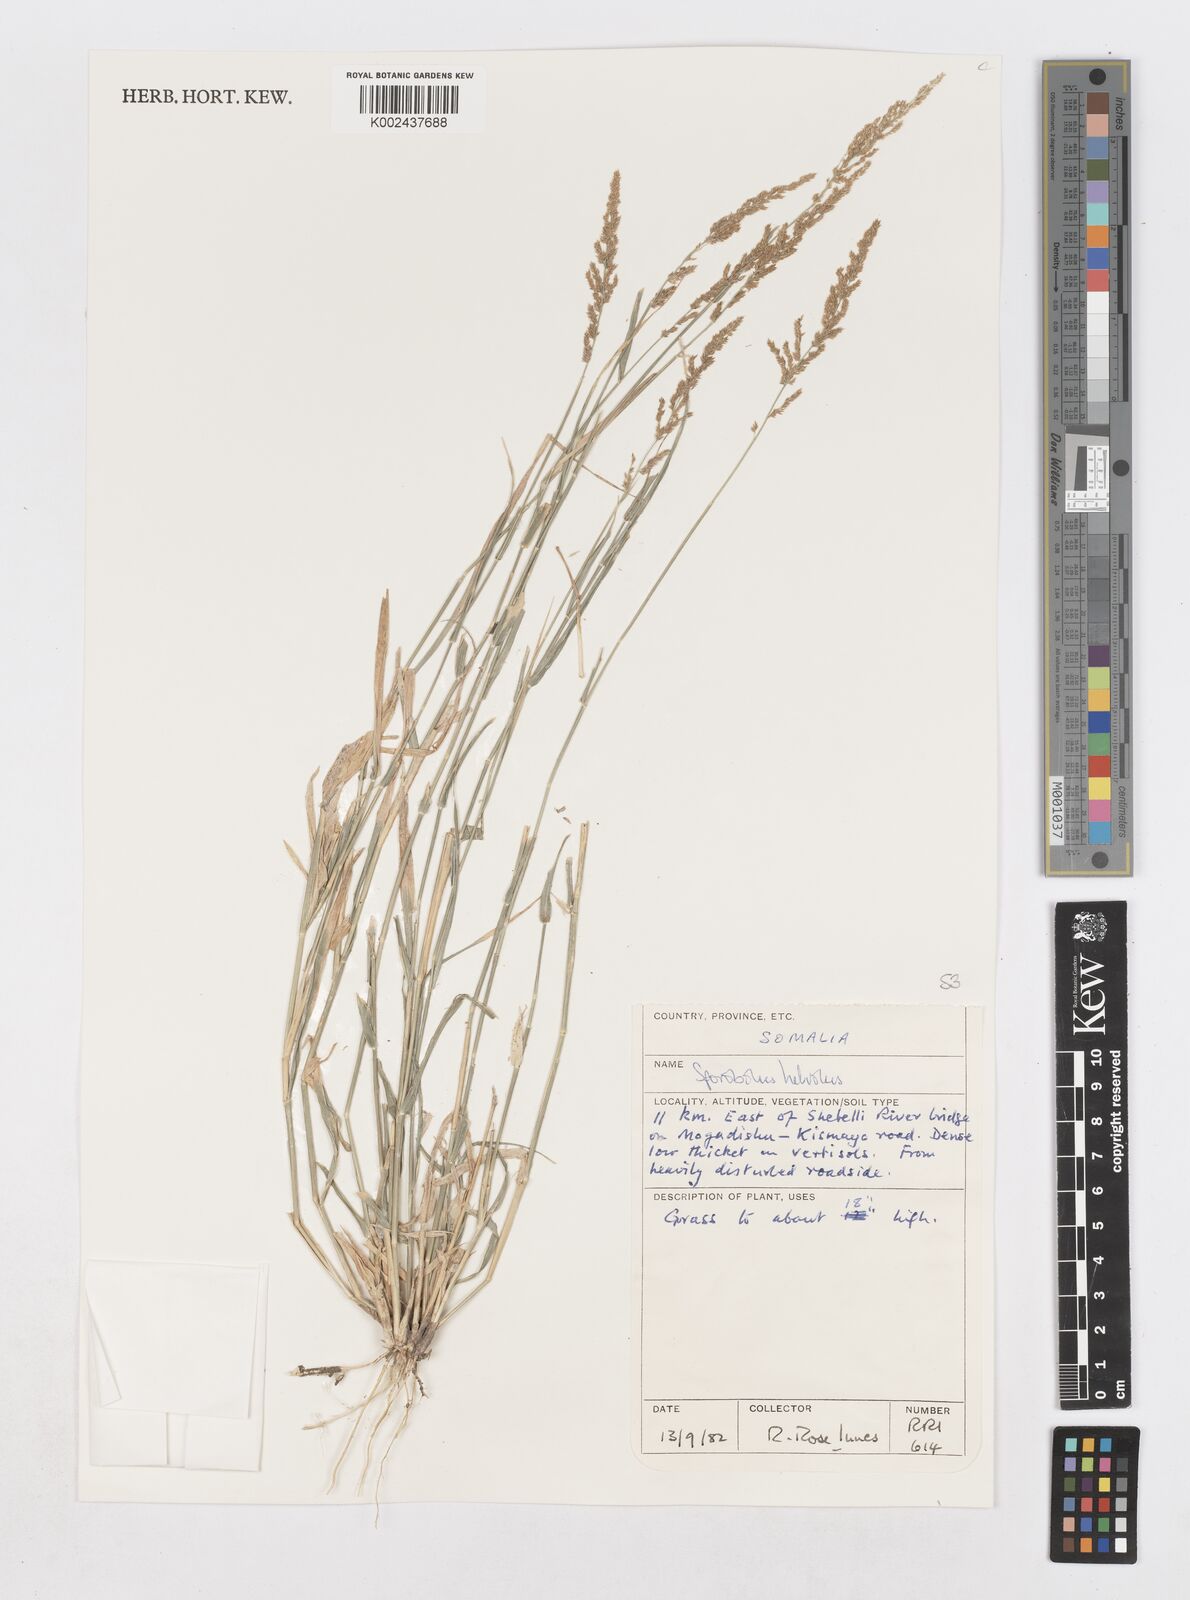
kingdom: Plantae
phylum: Tracheophyta
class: Liliopsida
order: Poales
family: Poaceae
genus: Sporobolus
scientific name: Sporobolus helvolus
